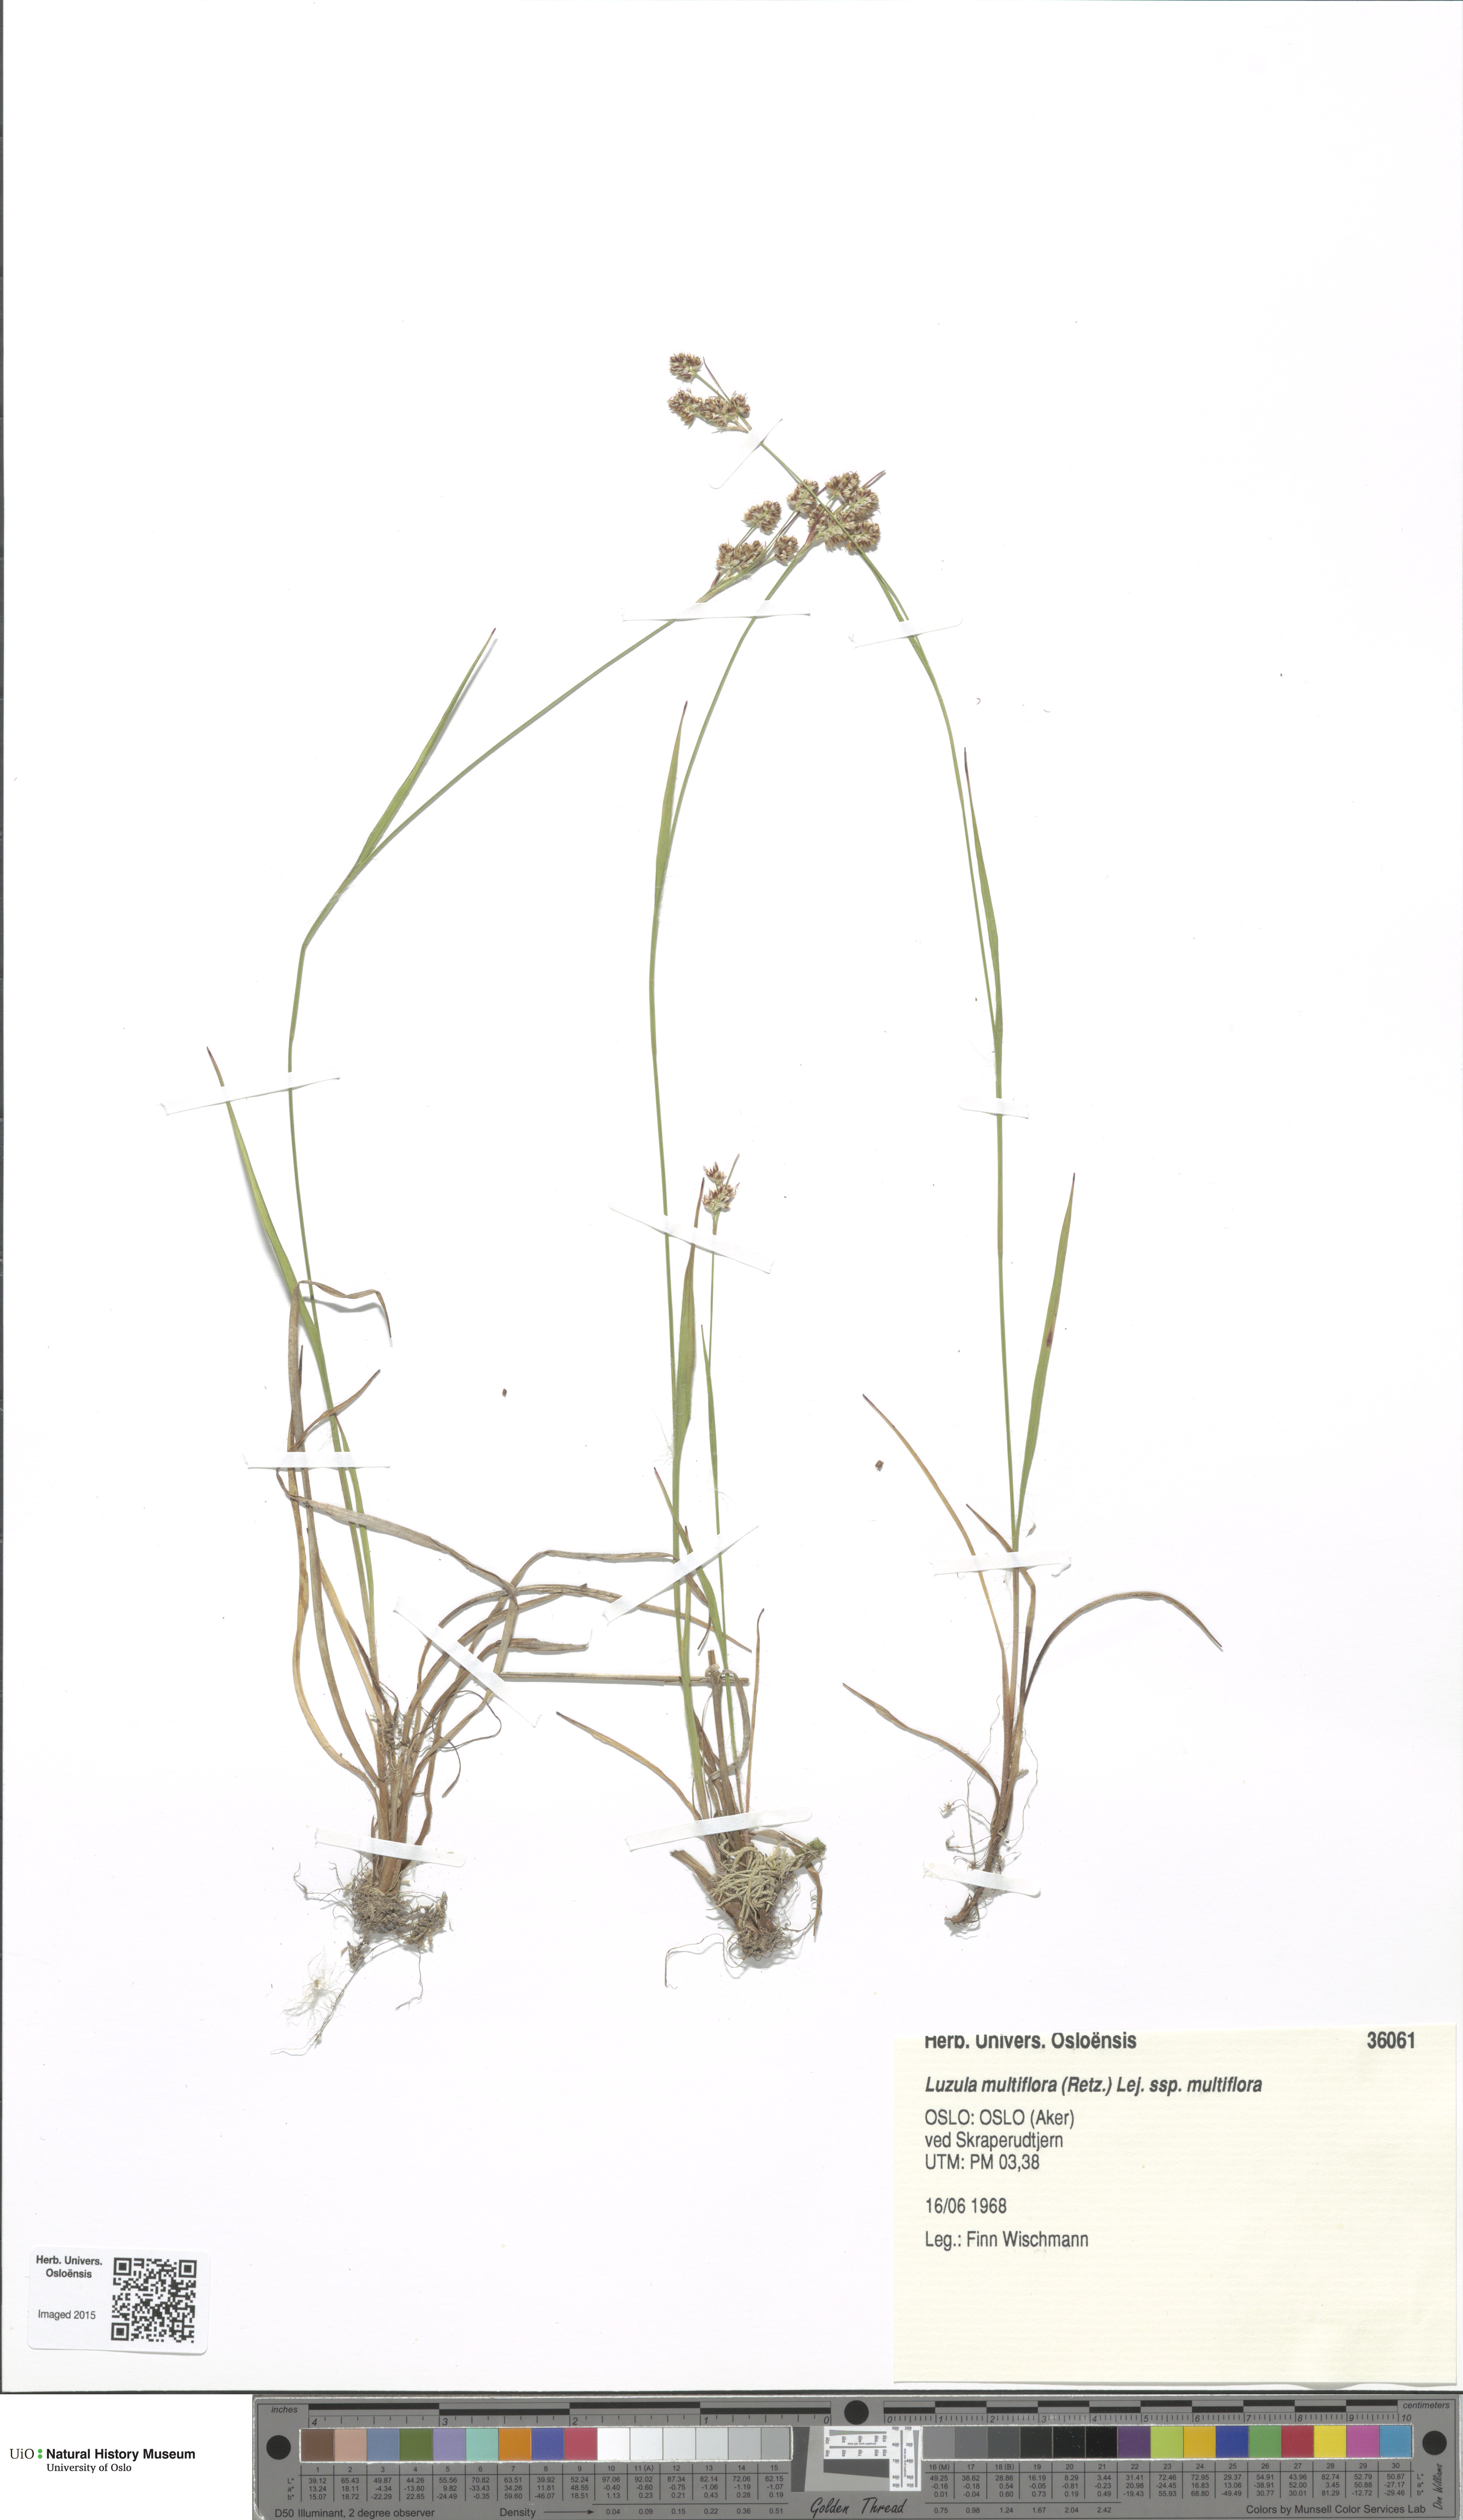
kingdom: Plantae
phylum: Tracheophyta
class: Liliopsida
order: Poales
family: Juncaceae
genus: Luzula
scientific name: Luzula multiflora
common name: Heath wood-rush
